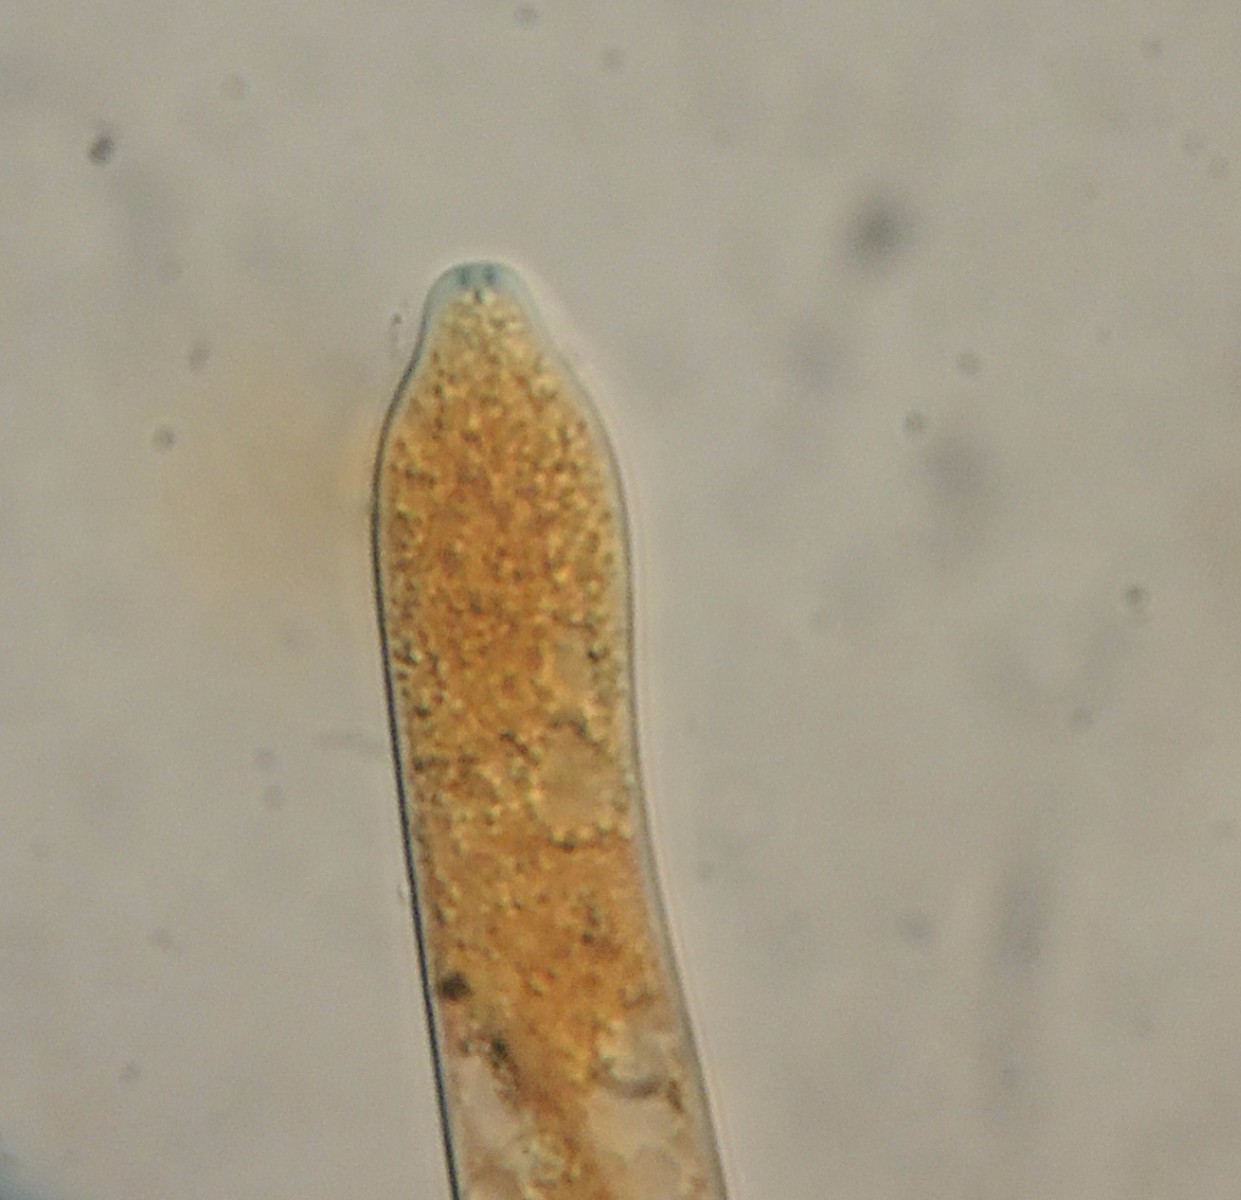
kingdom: Fungi
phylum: Ascomycota
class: Leotiomycetes
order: Helotiales
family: Helotiaceae
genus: Hymenoscyphus
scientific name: Hymenoscyphus caudatus
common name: blad-stilkskive
